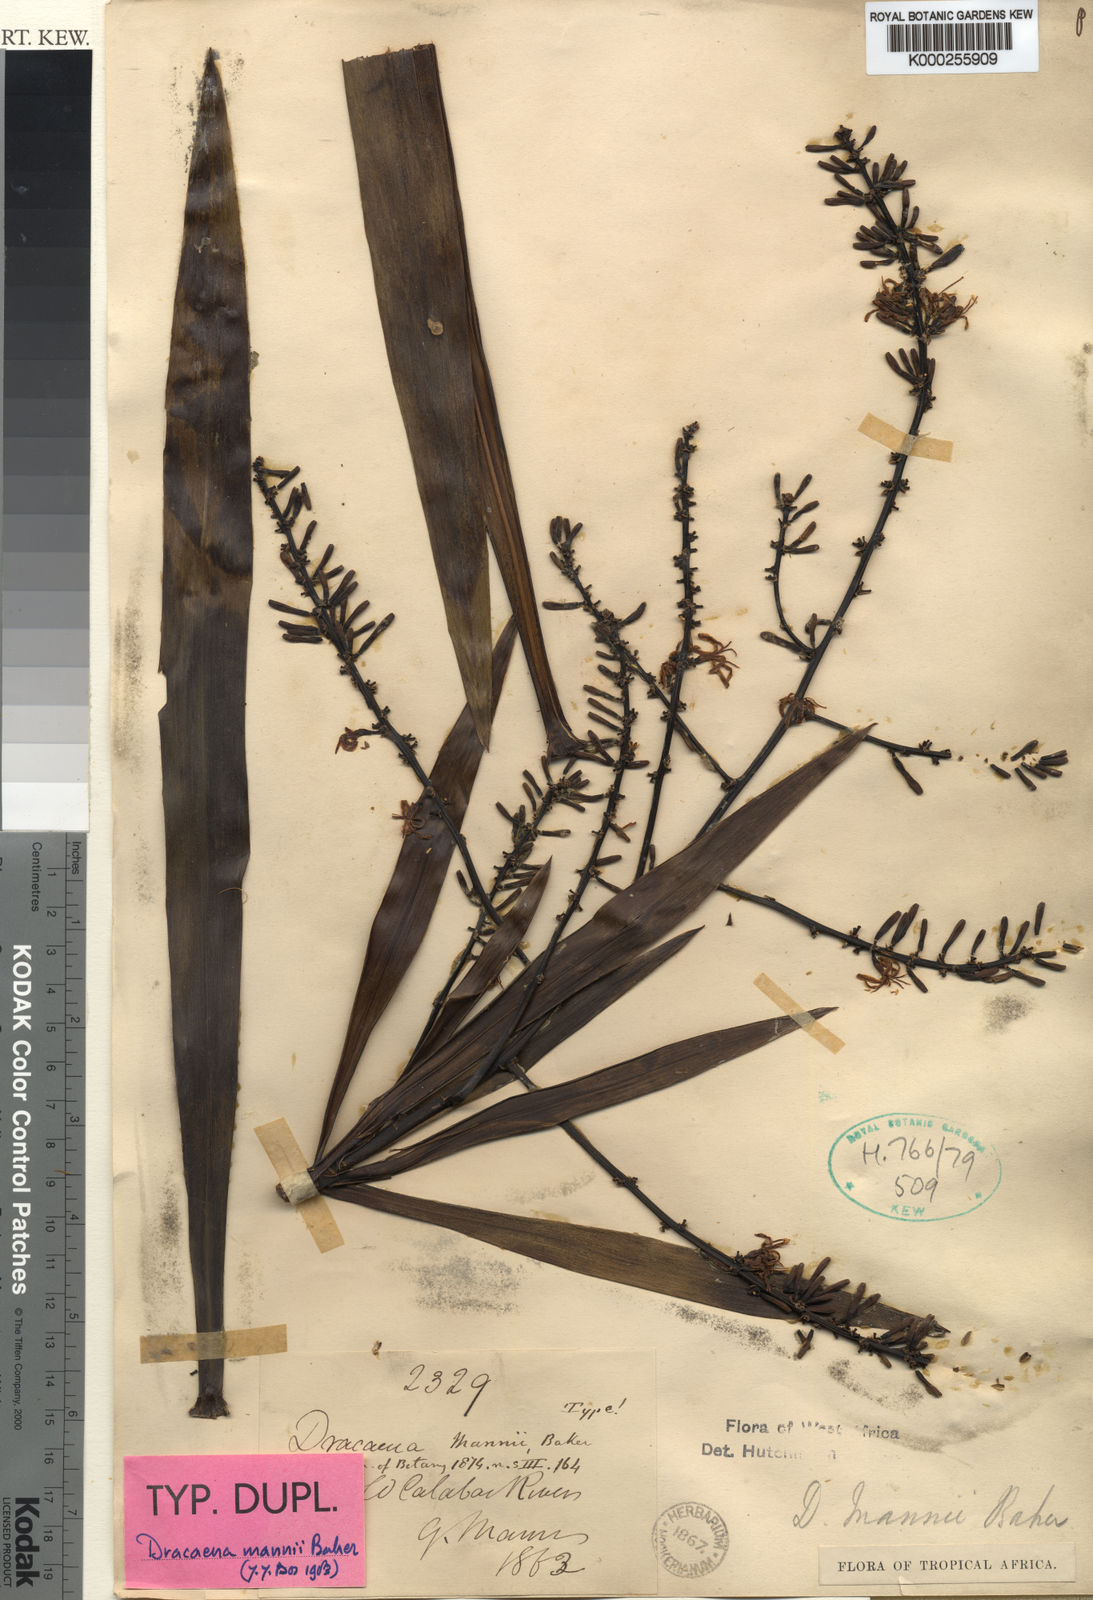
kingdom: Plantae
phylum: Tracheophyta
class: Liliopsida
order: Asparagales
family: Asparagaceae
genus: Dracaena
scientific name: Dracaena mannii
